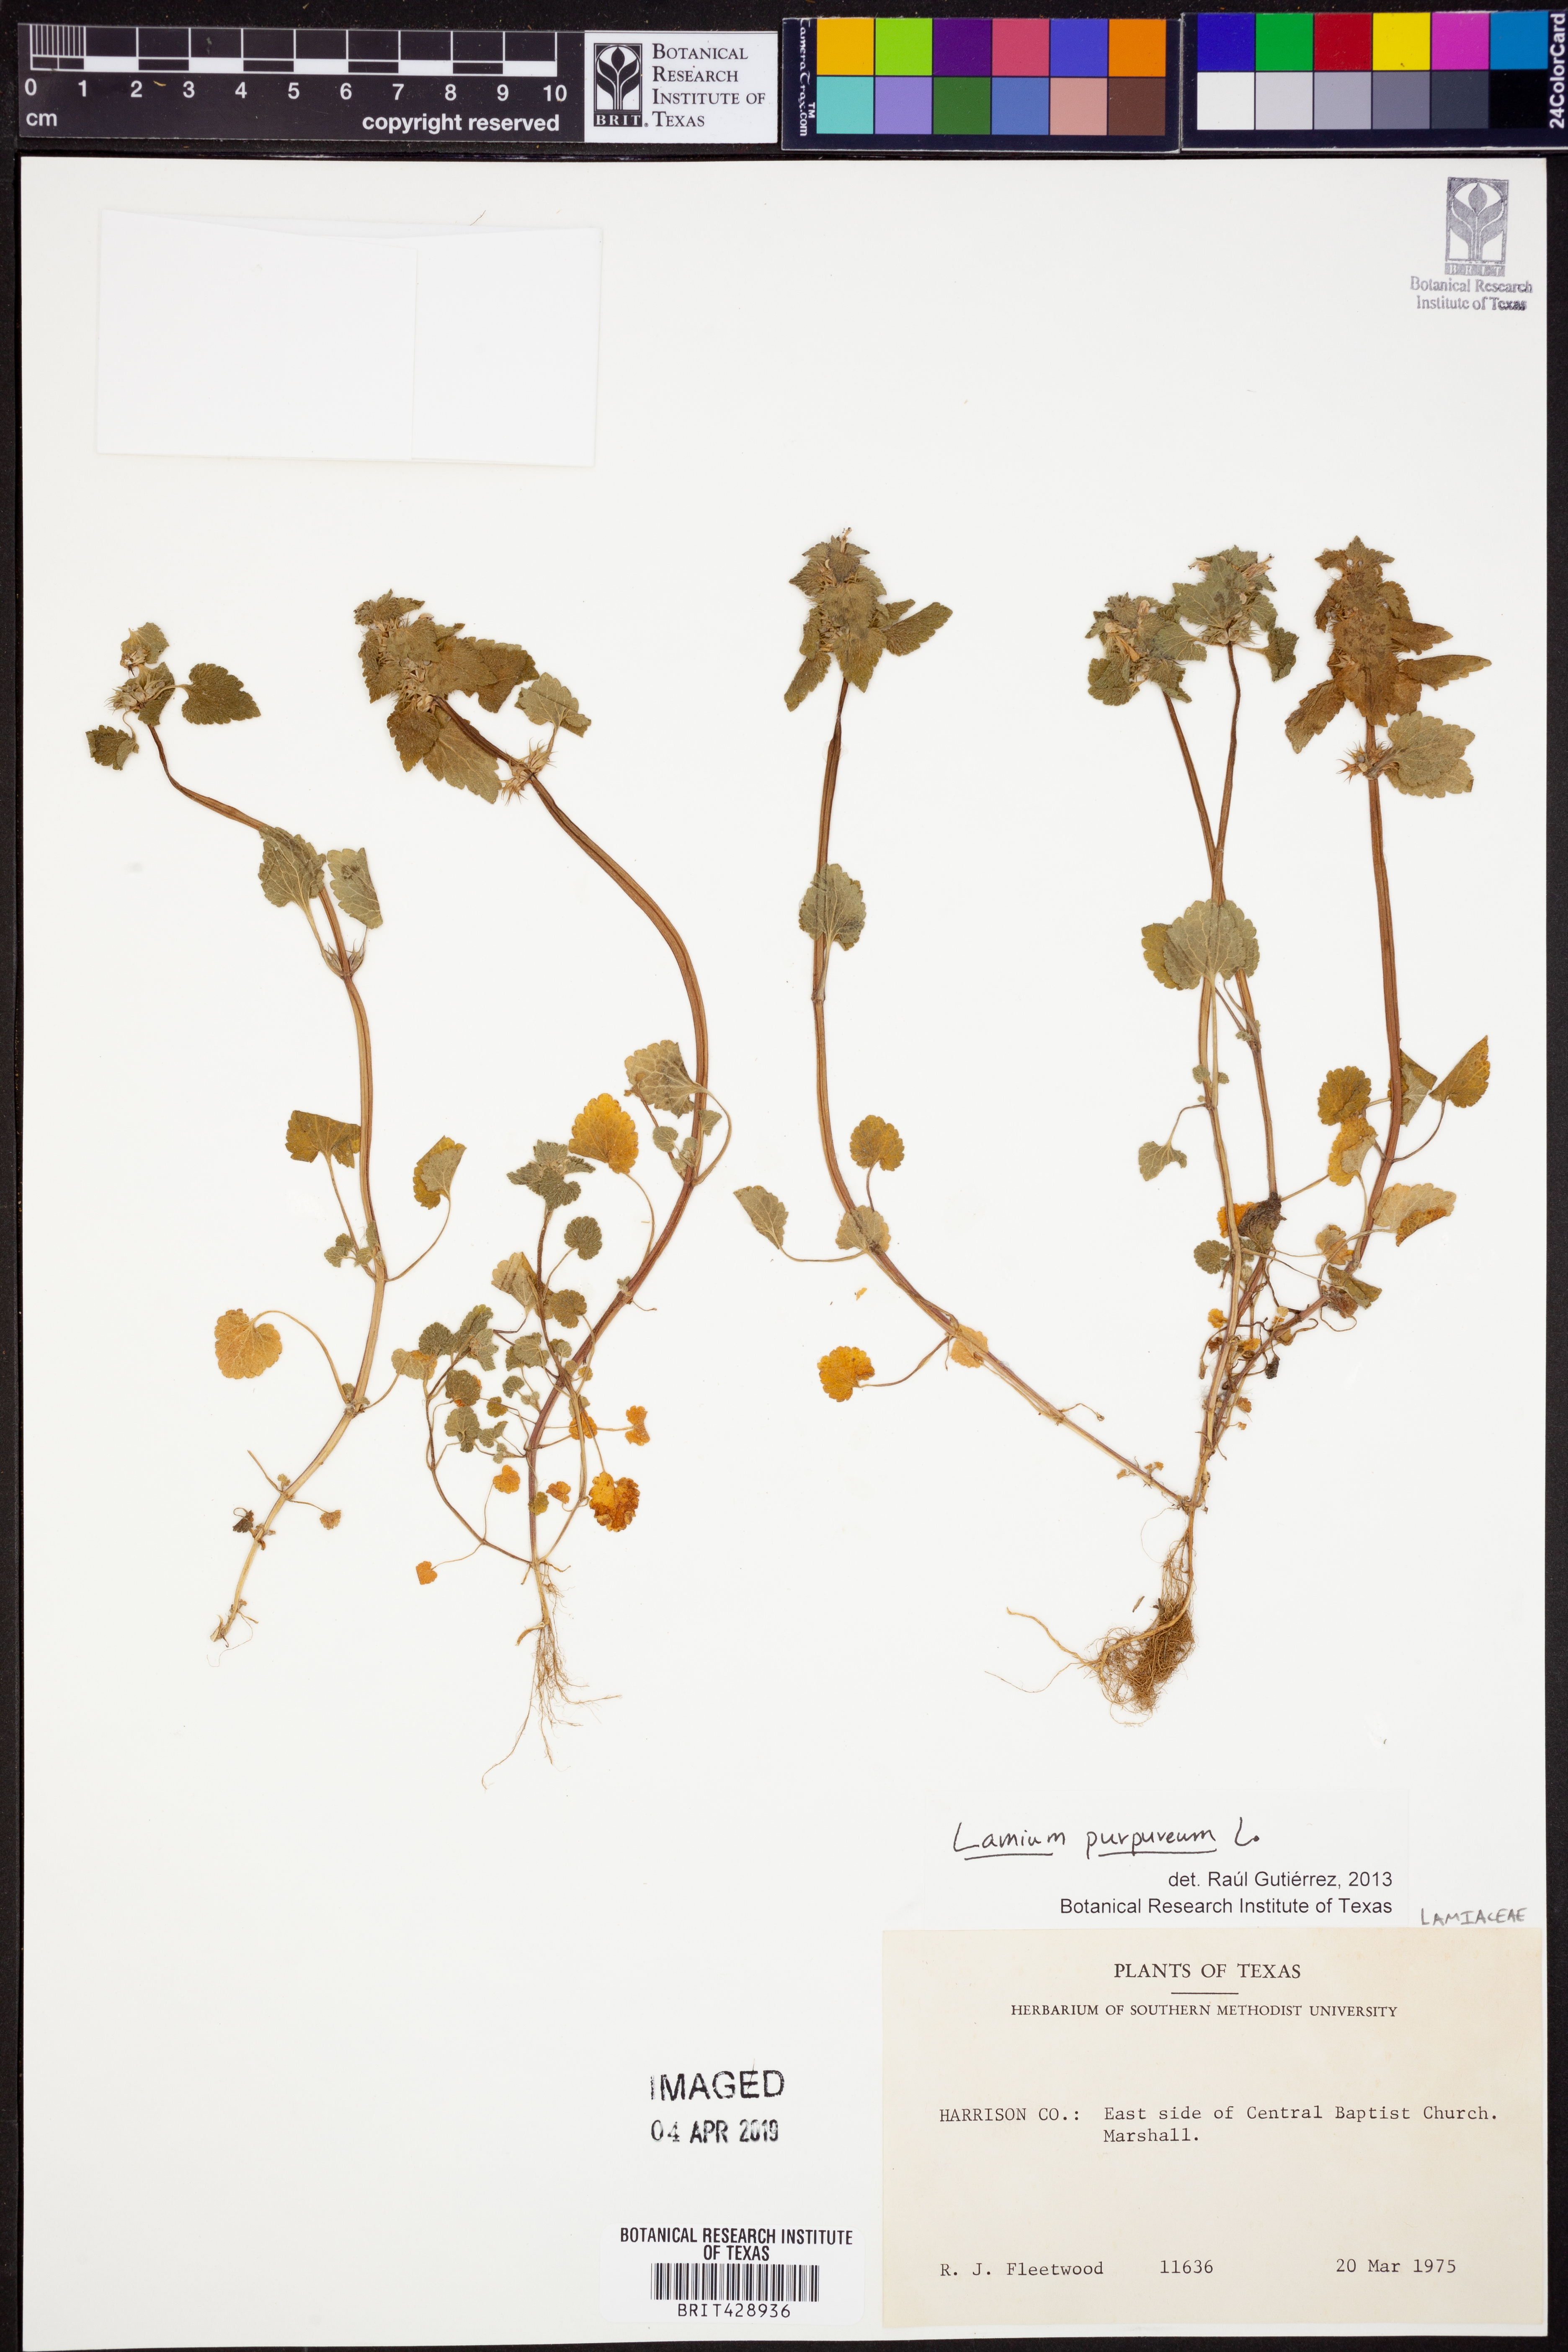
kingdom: Plantae
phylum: Tracheophyta
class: Magnoliopsida
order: Lamiales
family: Lamiaceae
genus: Lamium
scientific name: Lamium purpureum
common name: Red dead-nettle
